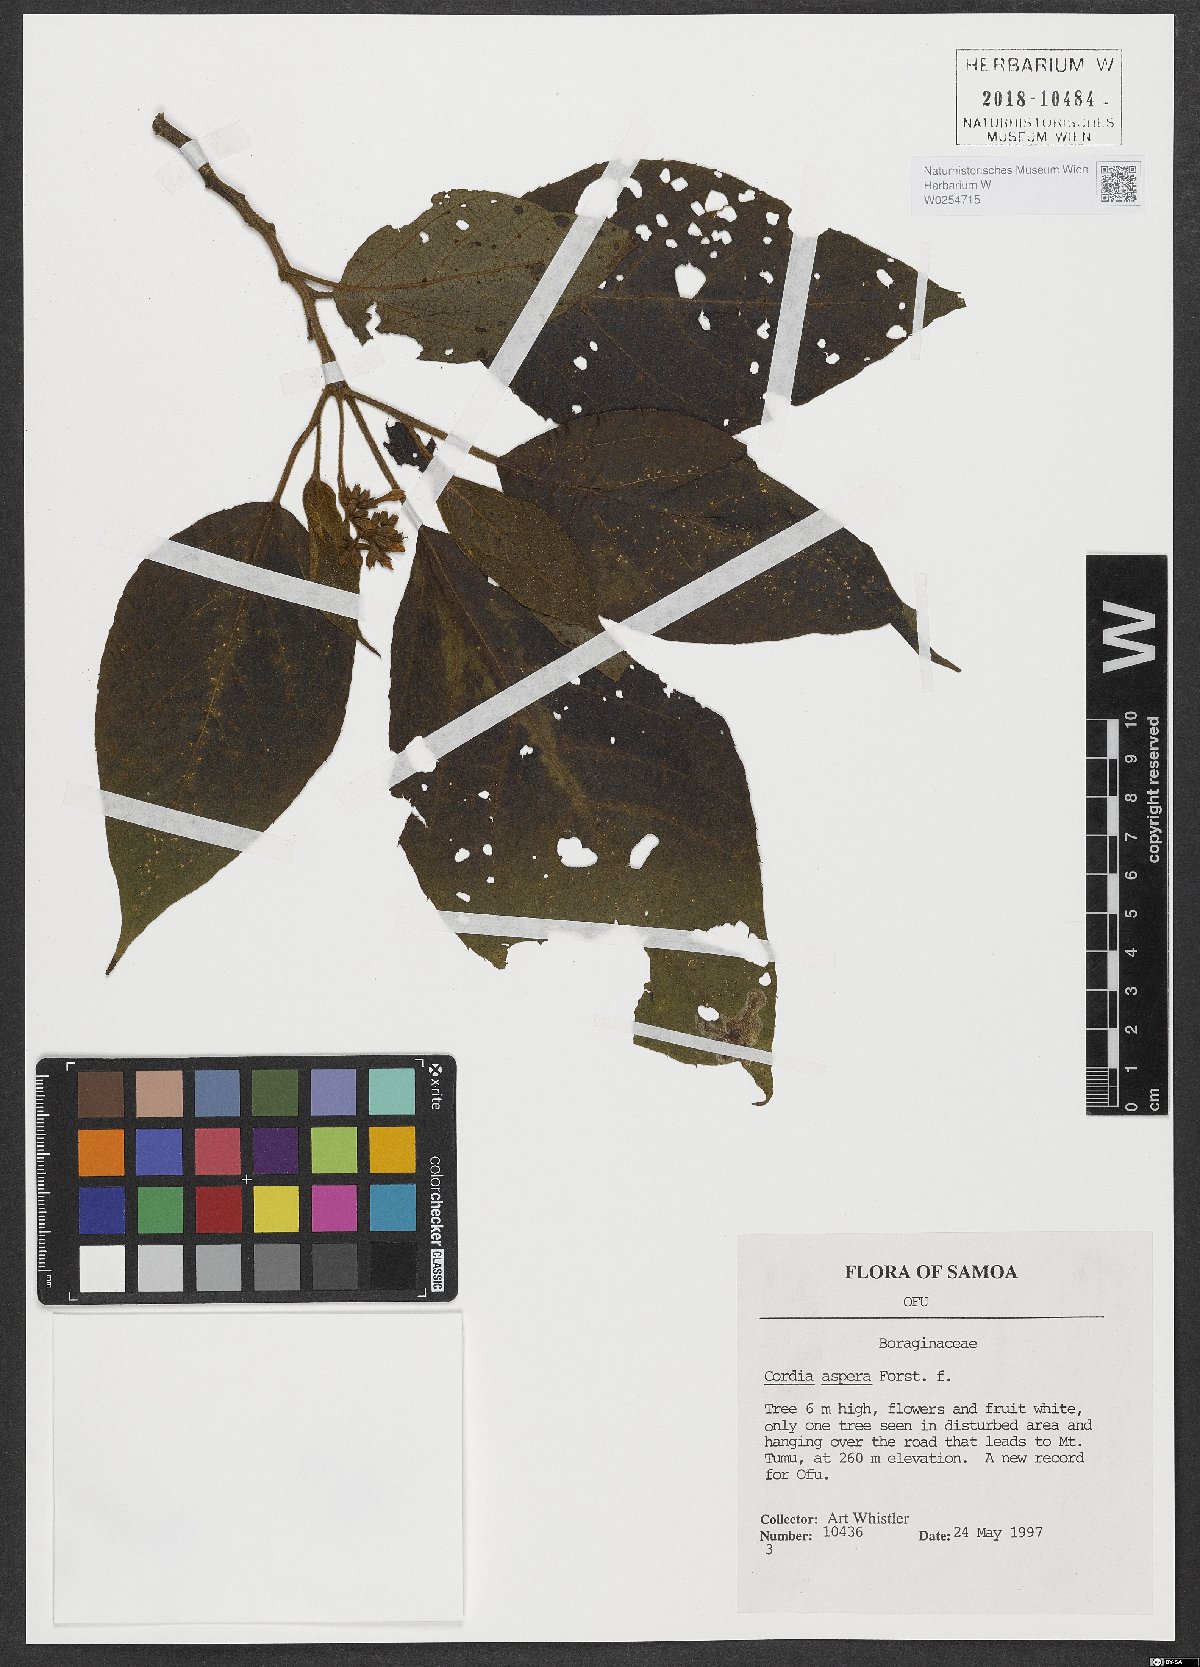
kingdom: Plantae
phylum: Tracheophyta
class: Magnoliopsida
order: Boraginales
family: Cordiaceae
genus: Cordia
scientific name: Cordia aspera
